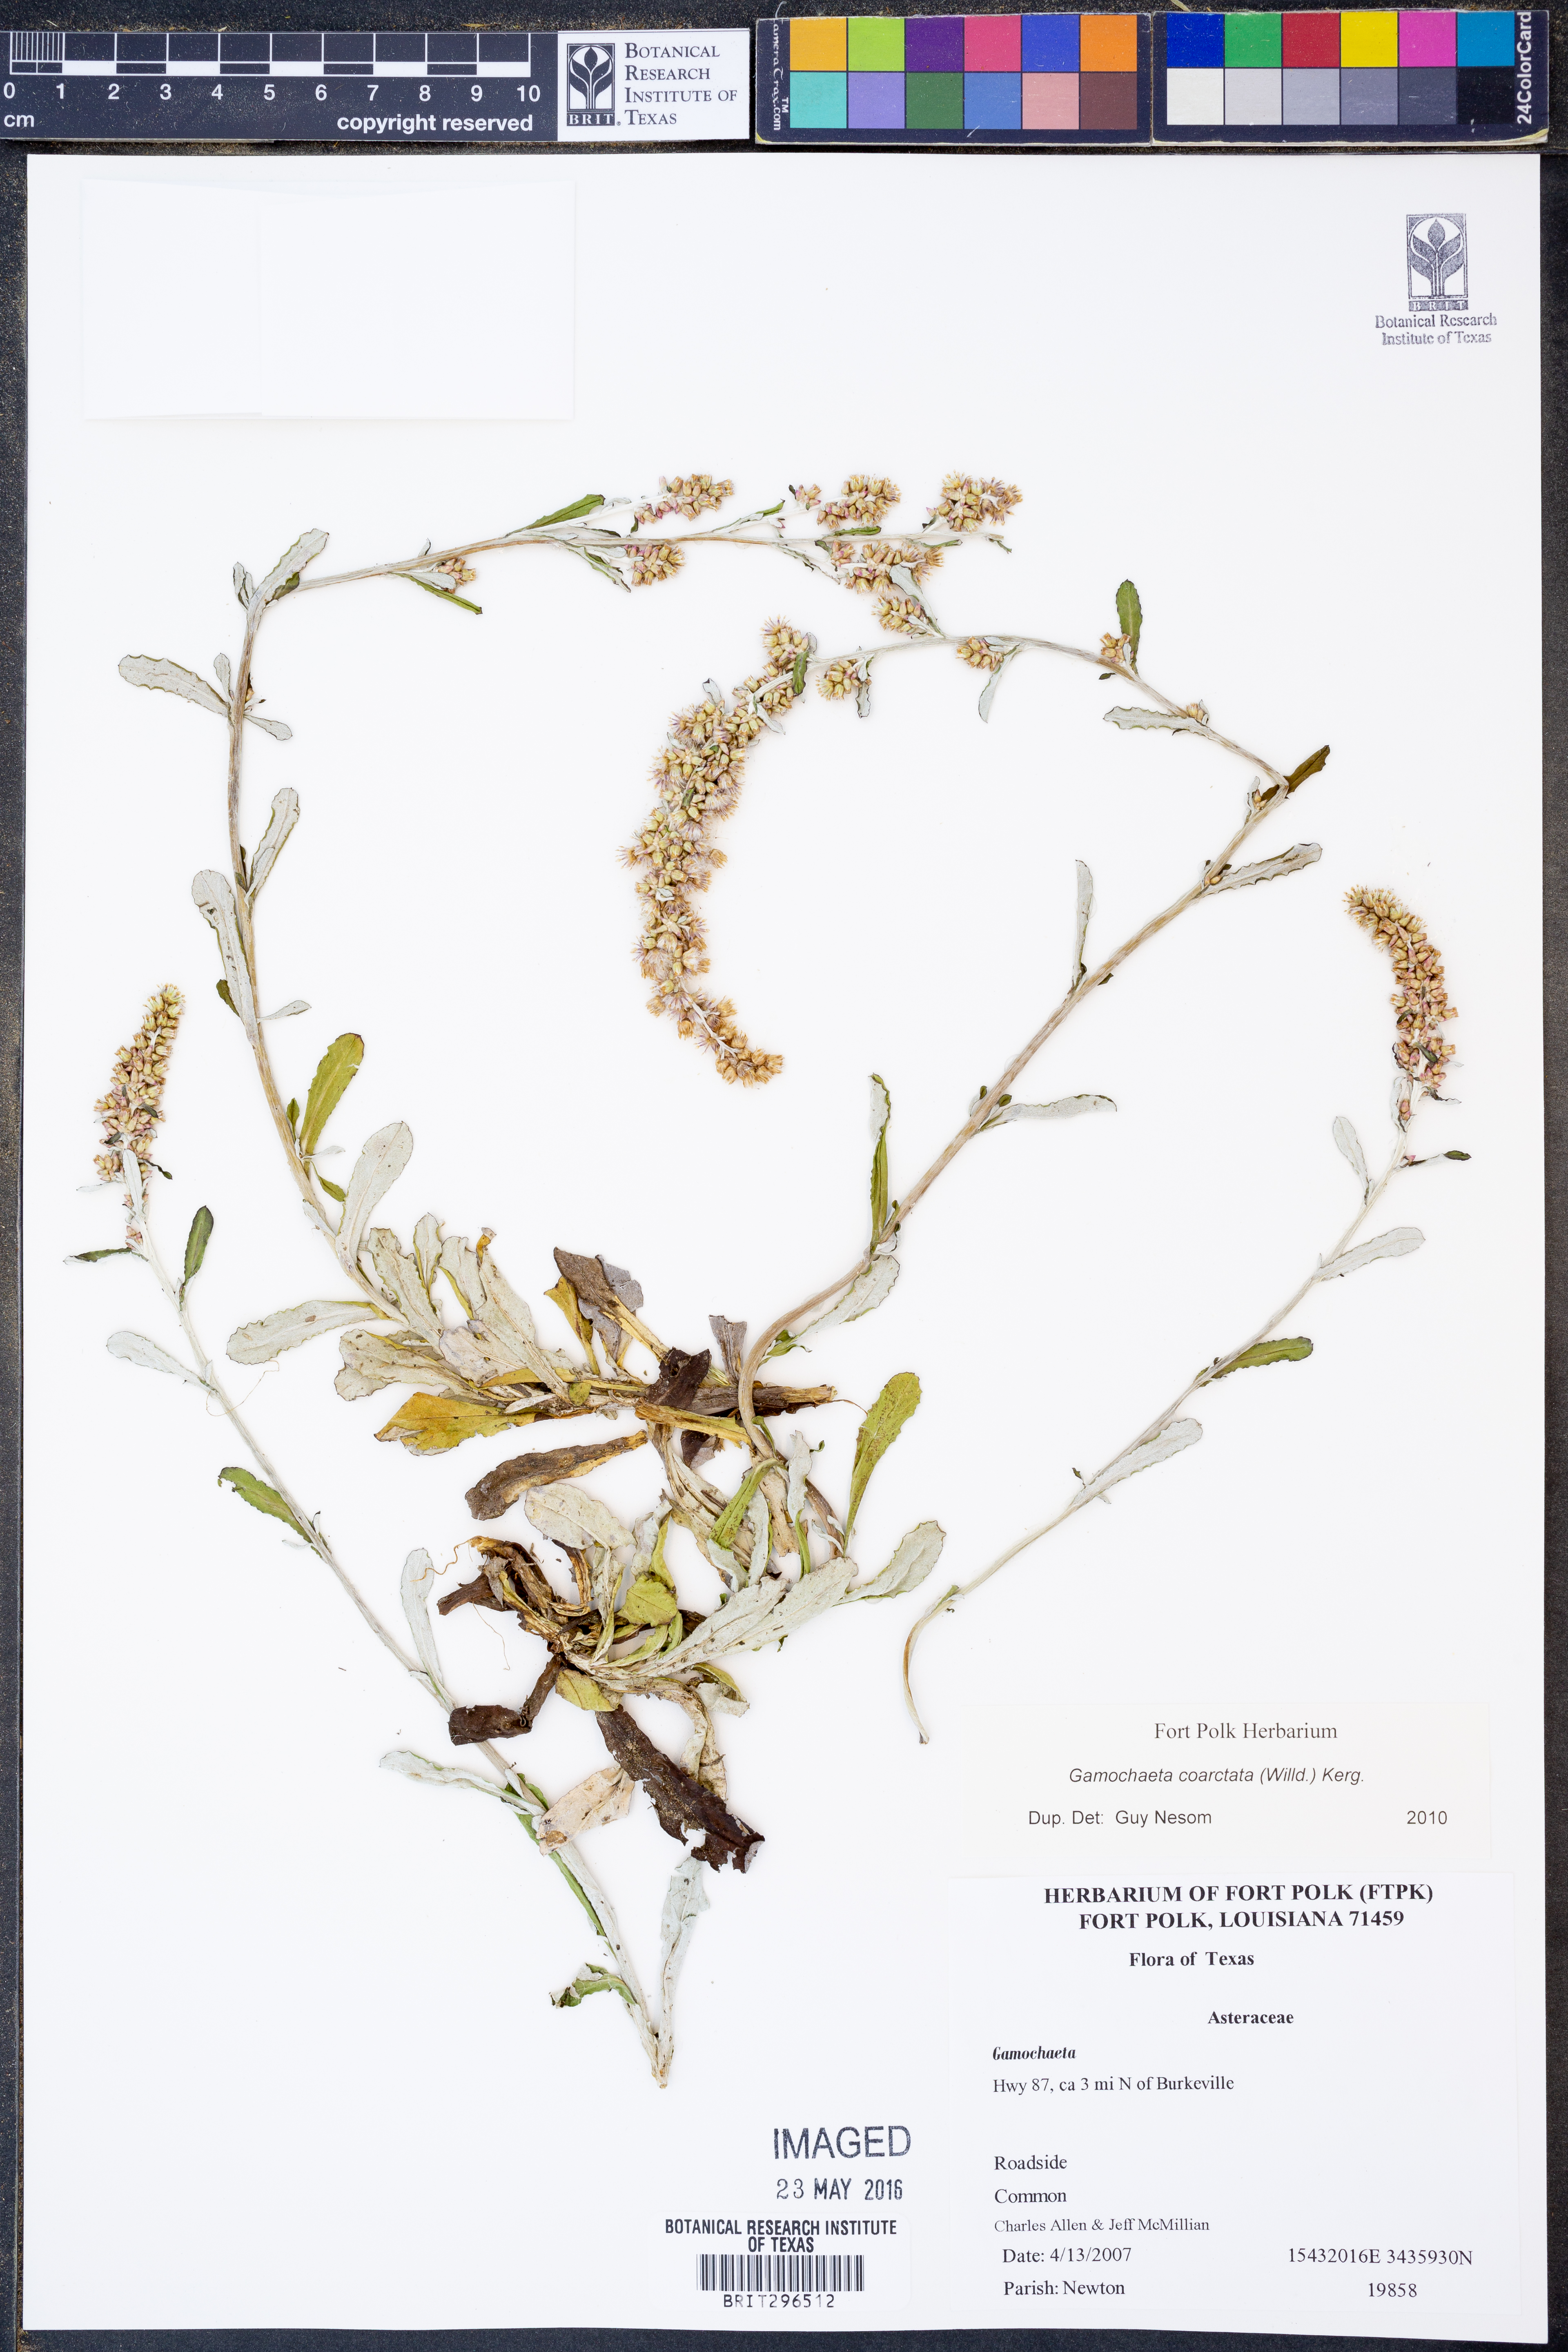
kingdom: Plantae
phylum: Tracheophyta
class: Magnoliopsida
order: Asterales
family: Asteraceae
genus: Gamochaeta
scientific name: Gamochaeta americana
